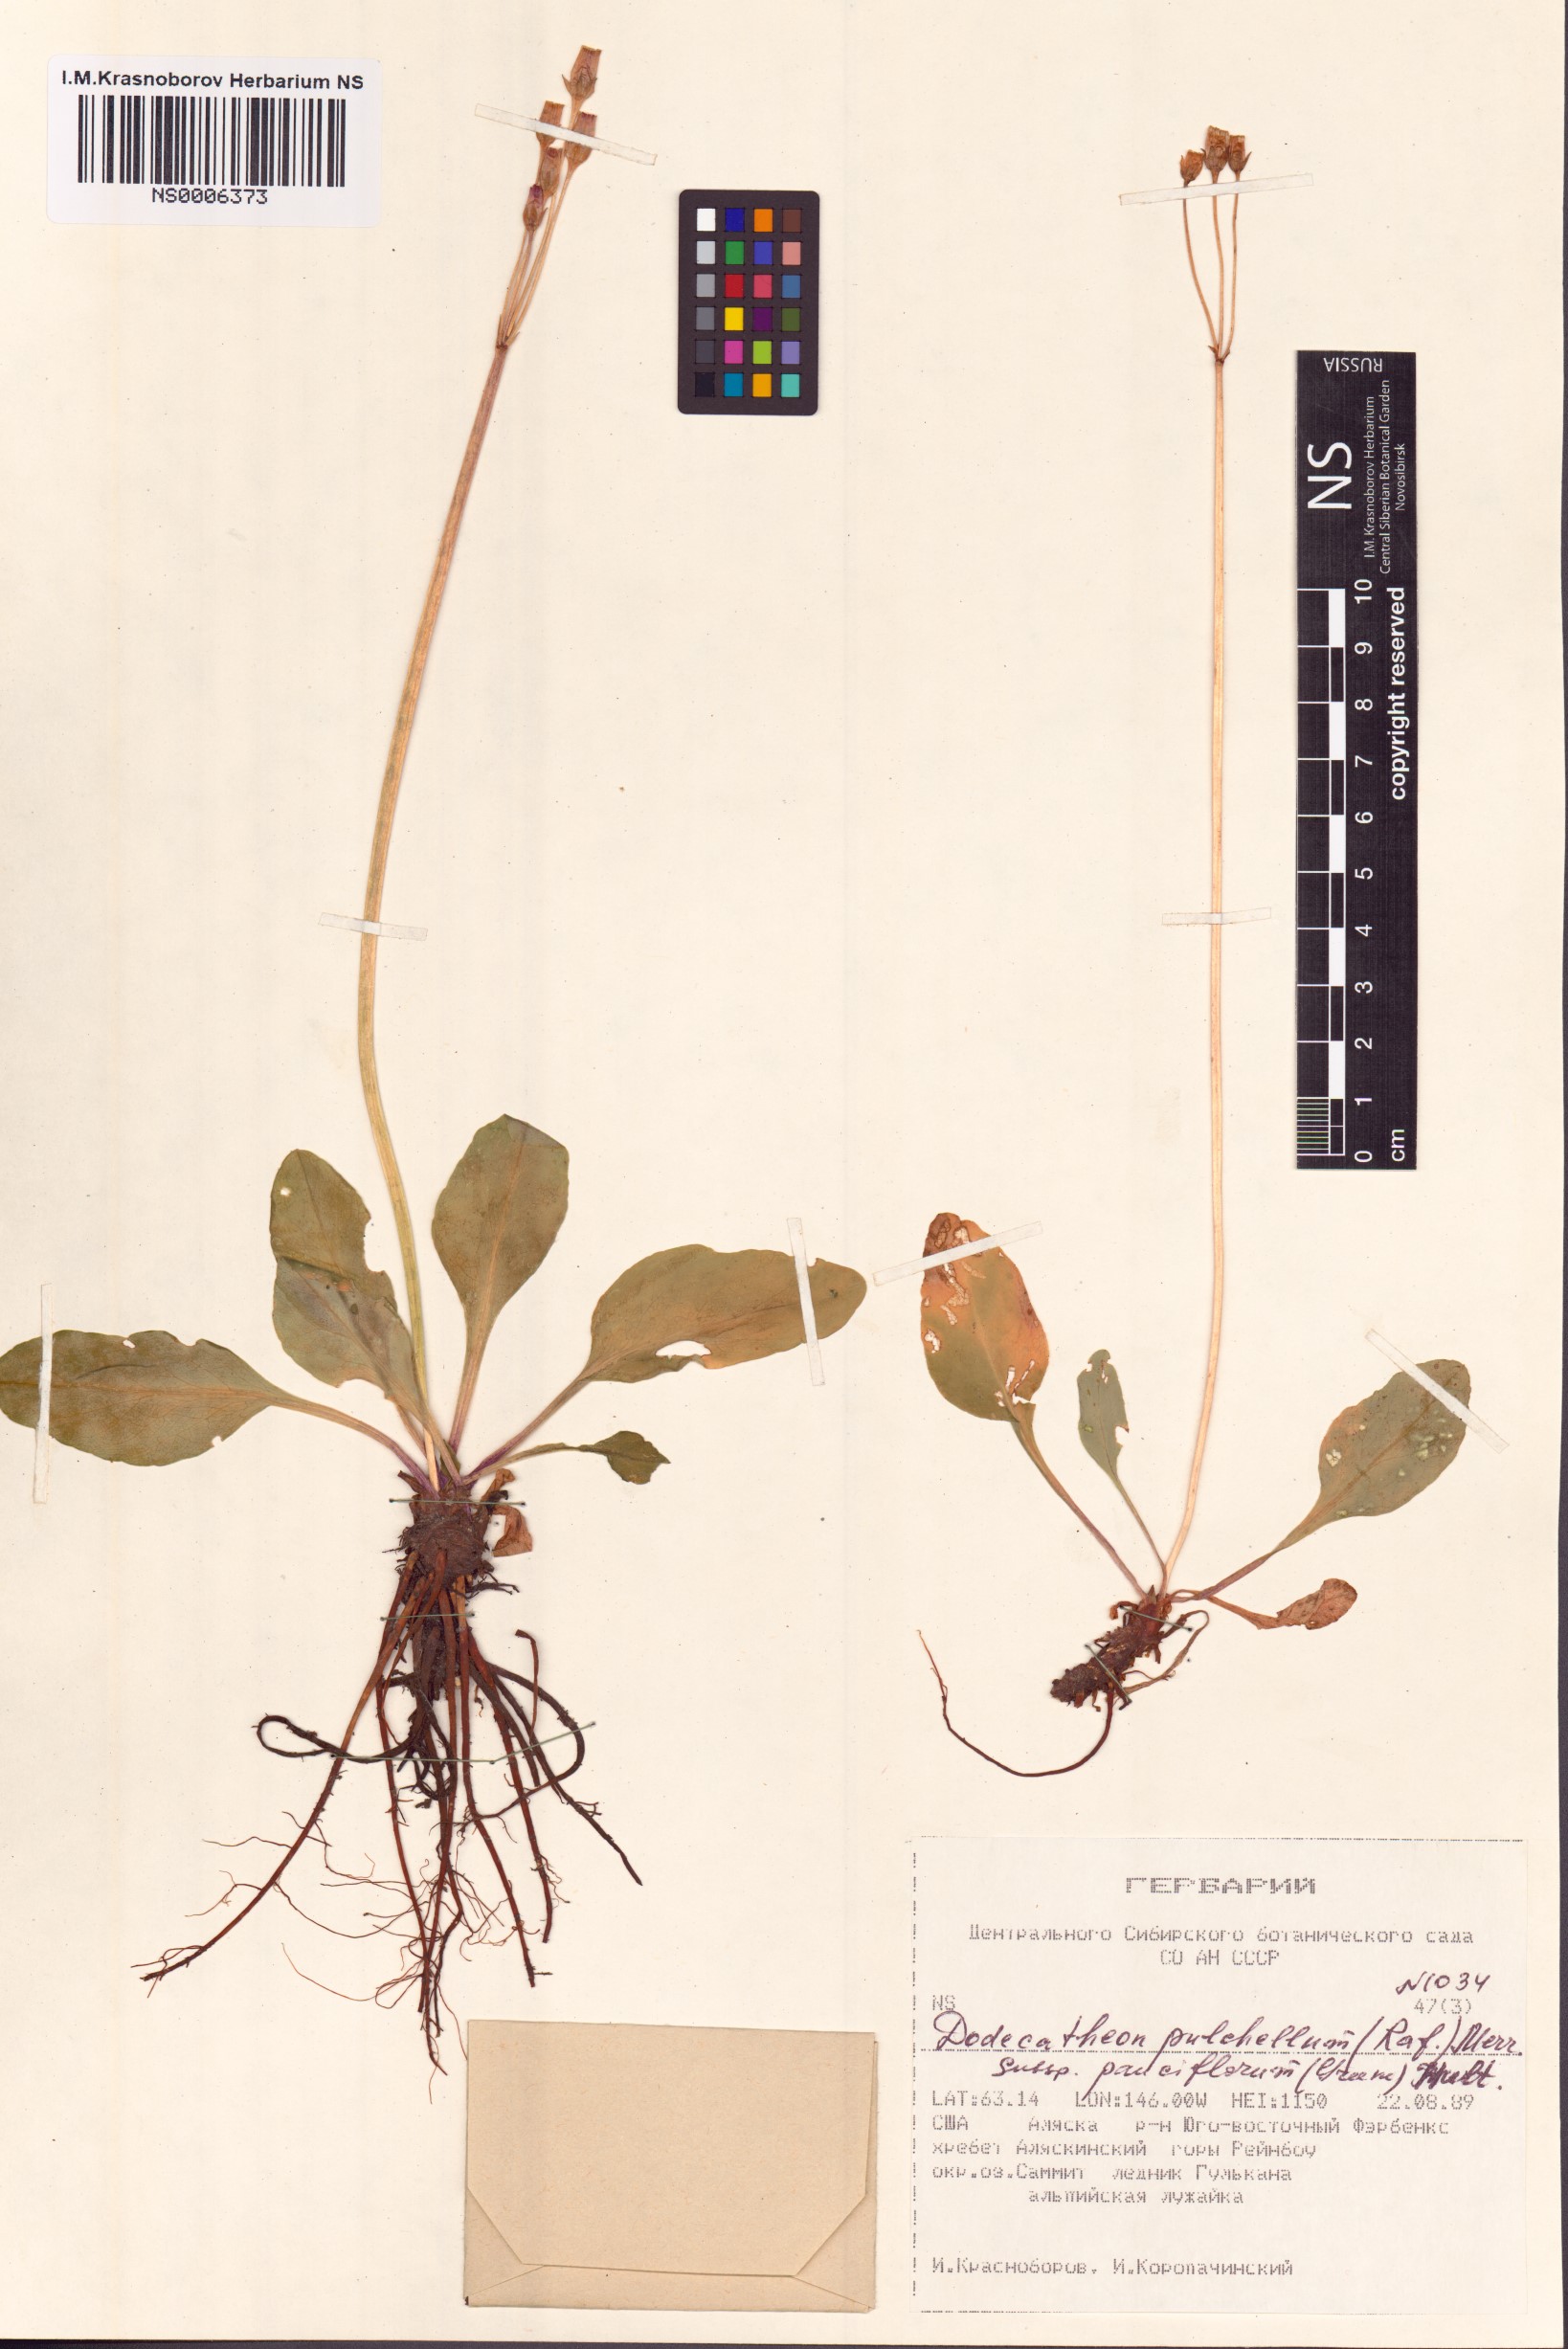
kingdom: Plantae
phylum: Tracheophyta
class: Magnoliopsida
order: Ericales
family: Primulaceae
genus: Dodecatheon
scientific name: Dodecatheon pulchellum
